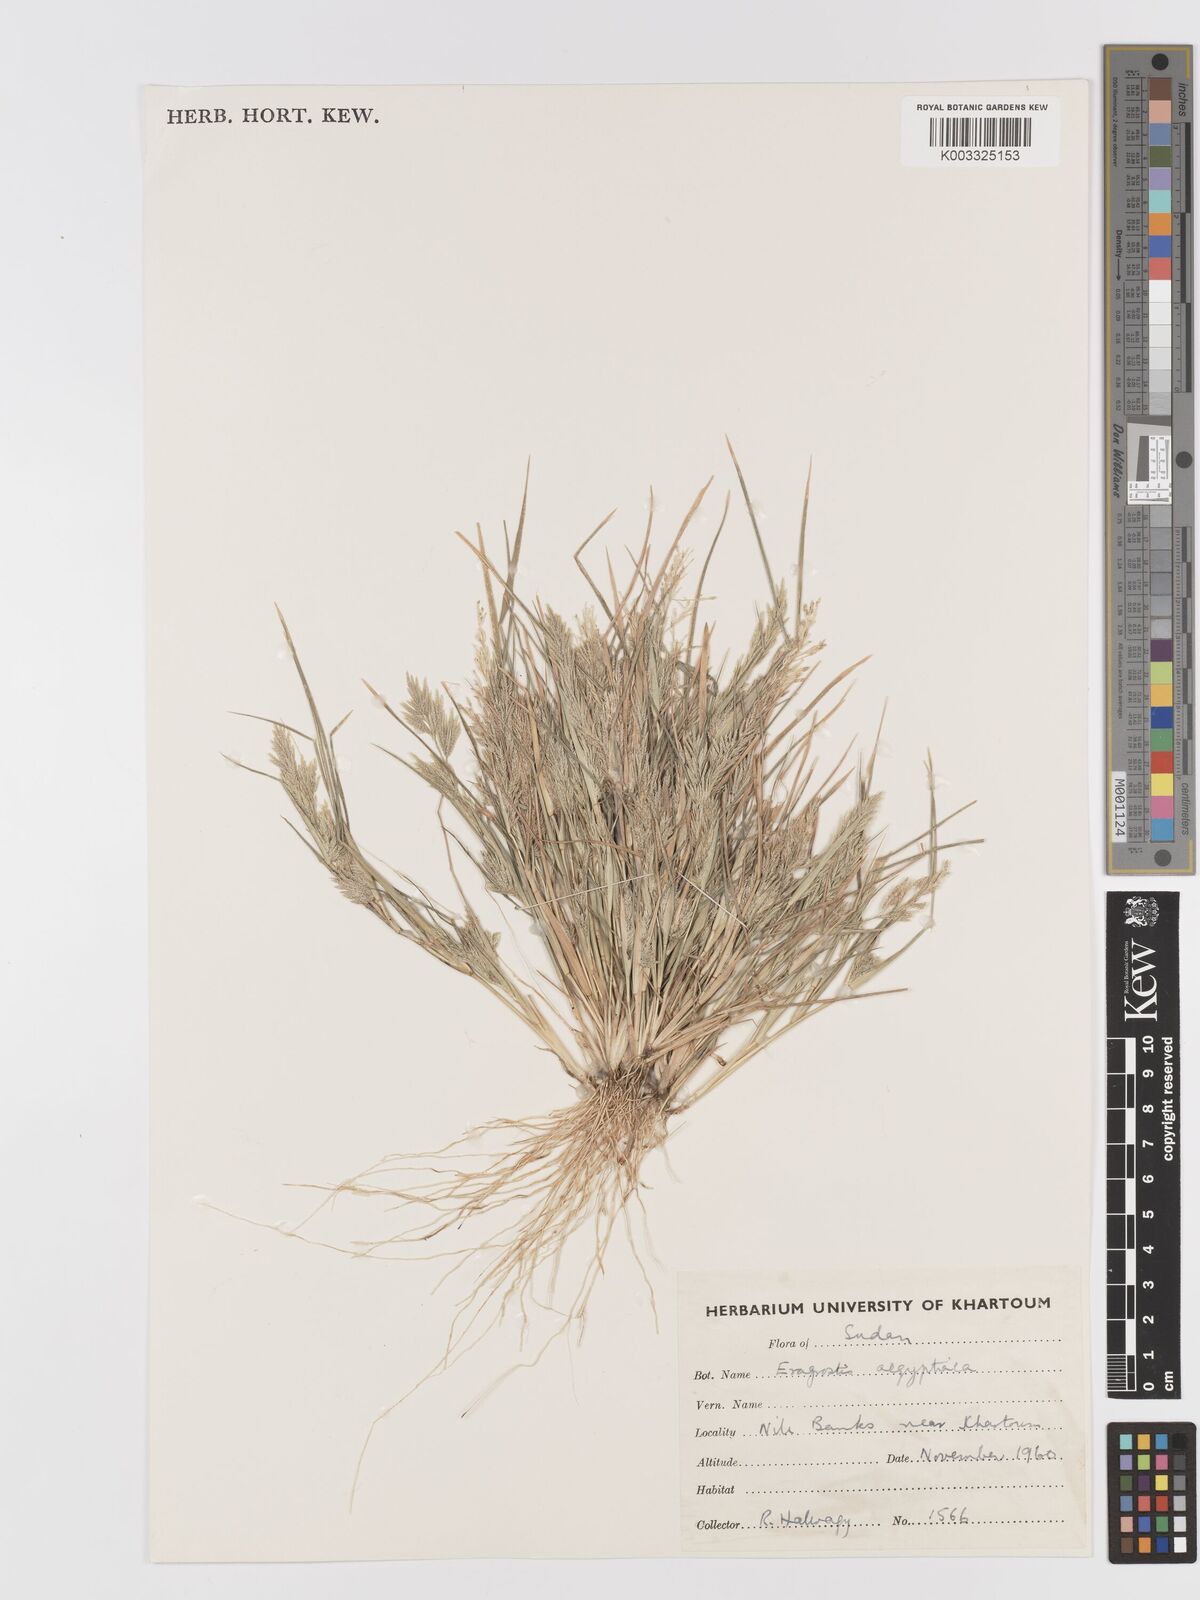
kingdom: Plantae
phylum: Tracheophyta
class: Liliopsida
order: Poales
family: Poaceae
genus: Eragrostis
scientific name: Eragrostis aegyptiaca
